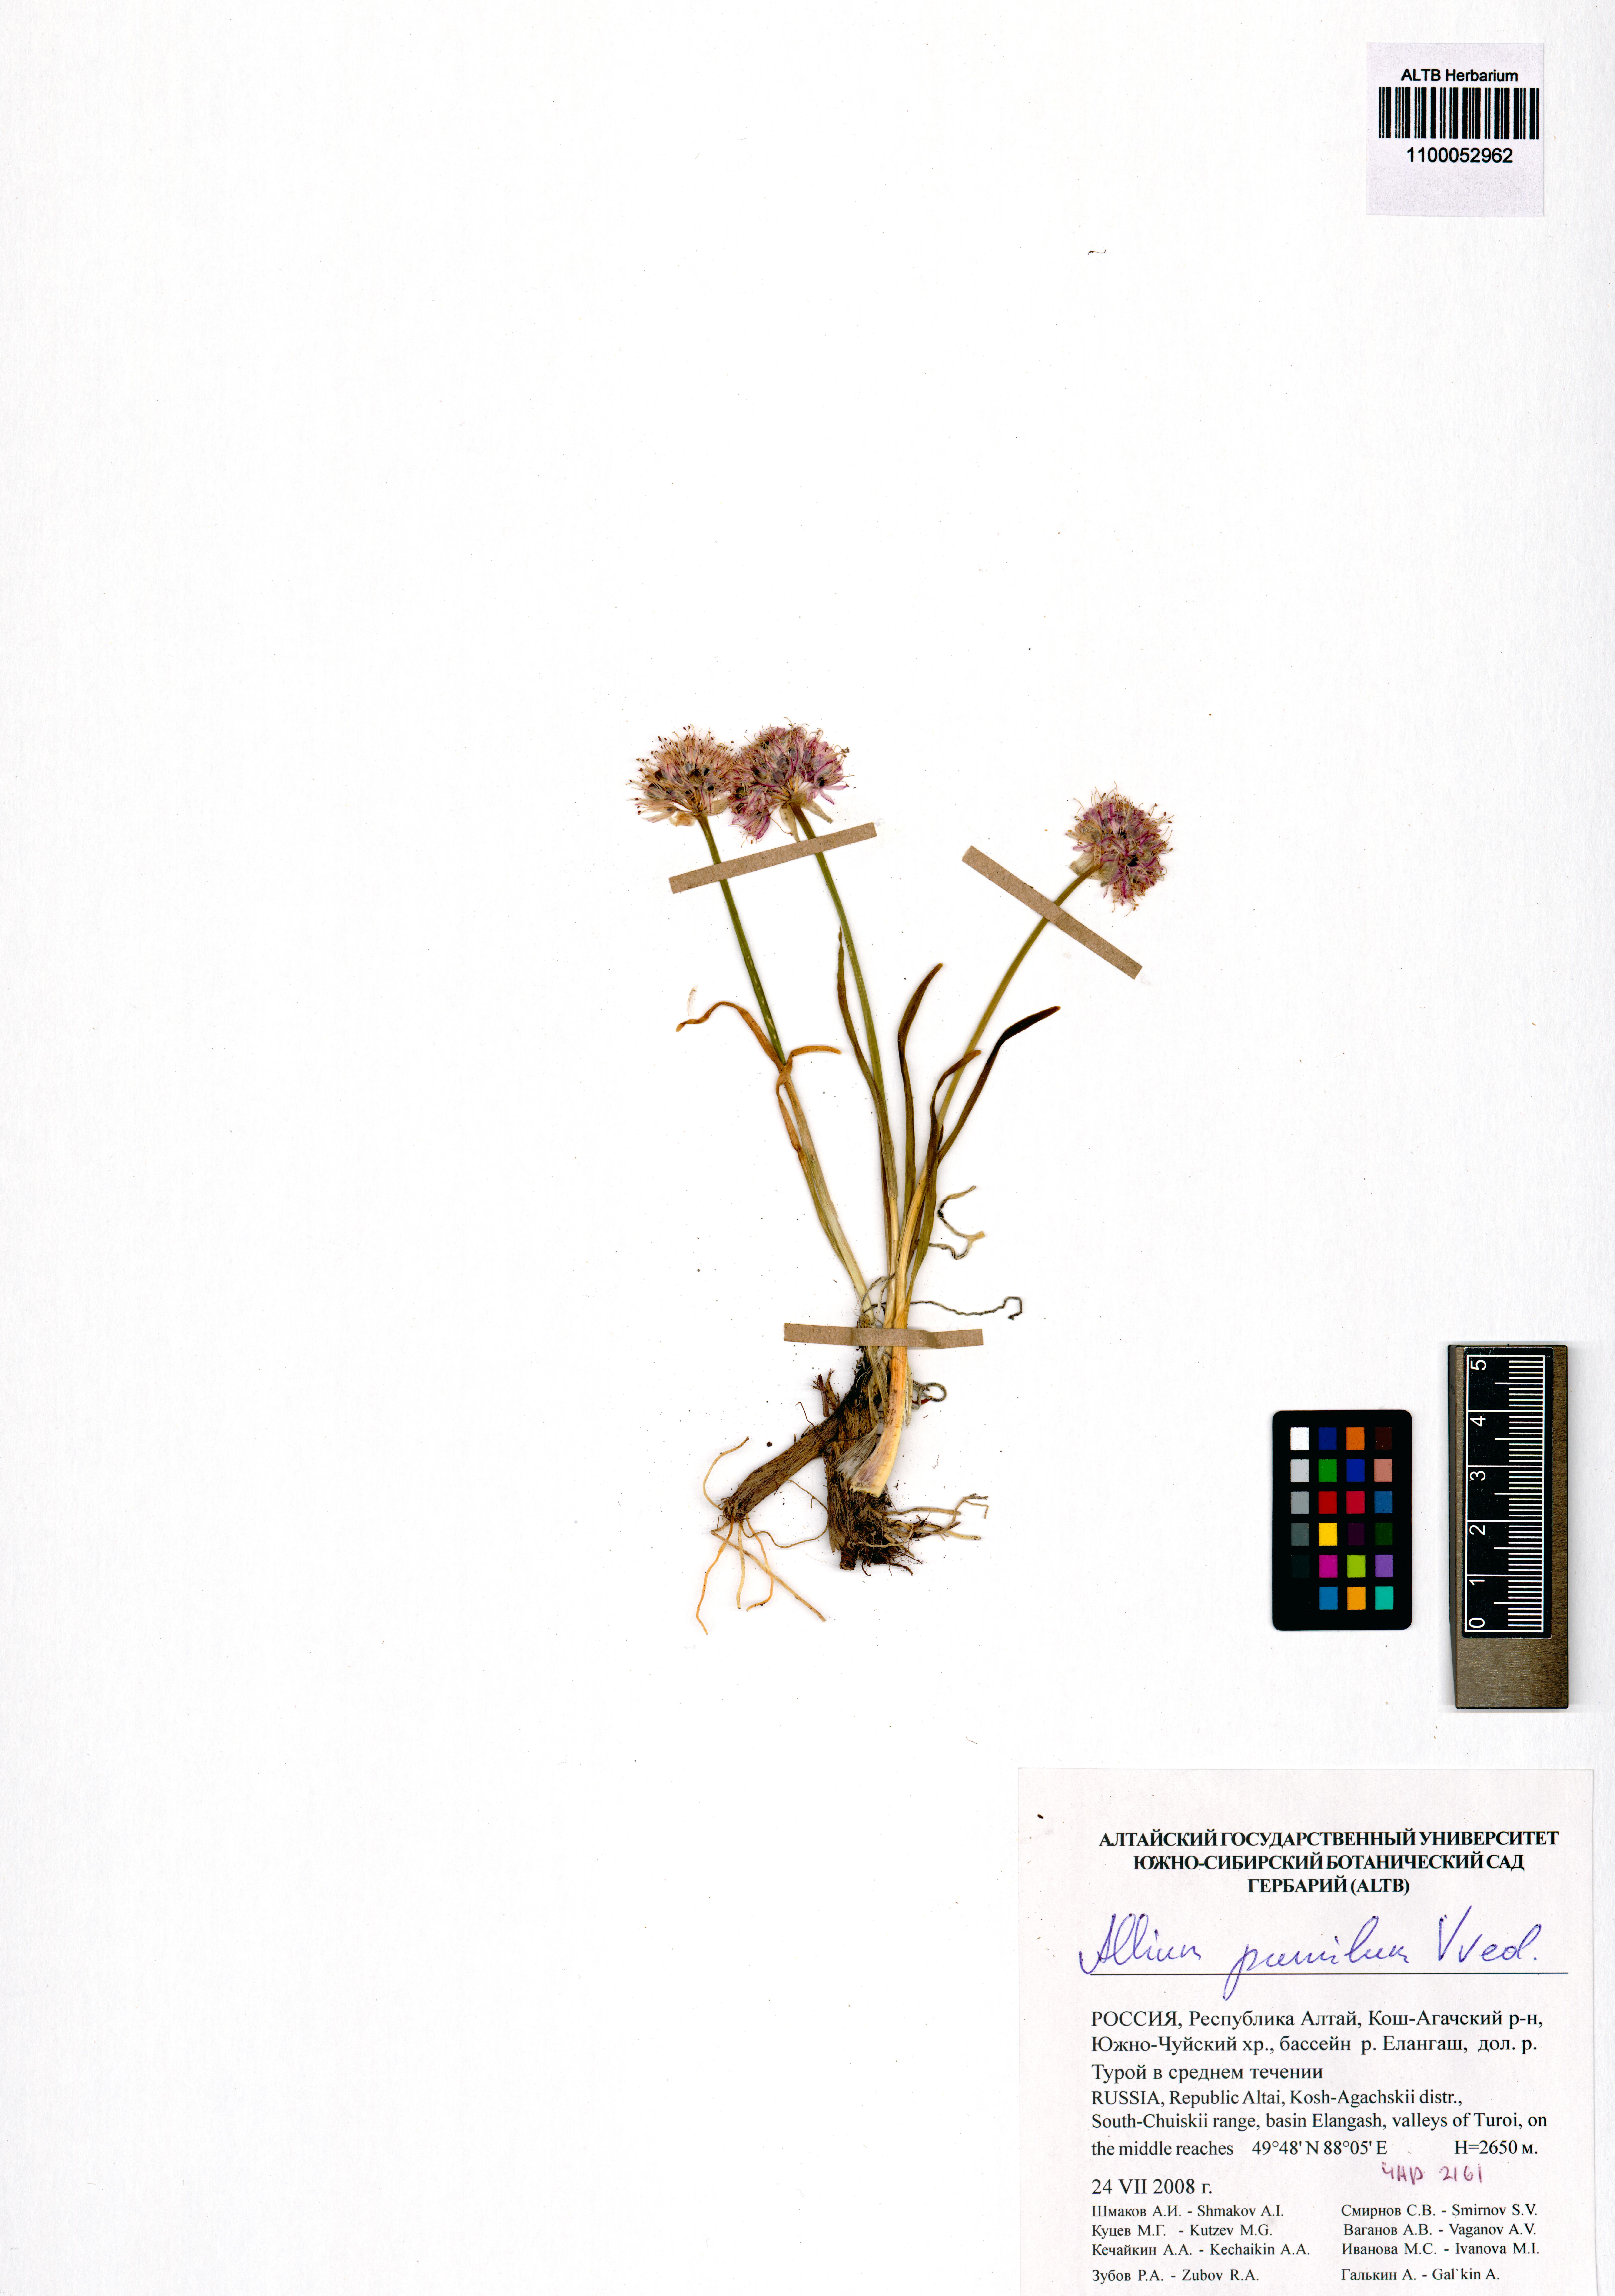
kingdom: Plantae
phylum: Tracheophyta
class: Liliopsida
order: Asparagales
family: Amaryllidaceae
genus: Allium
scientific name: Allium pumilum
